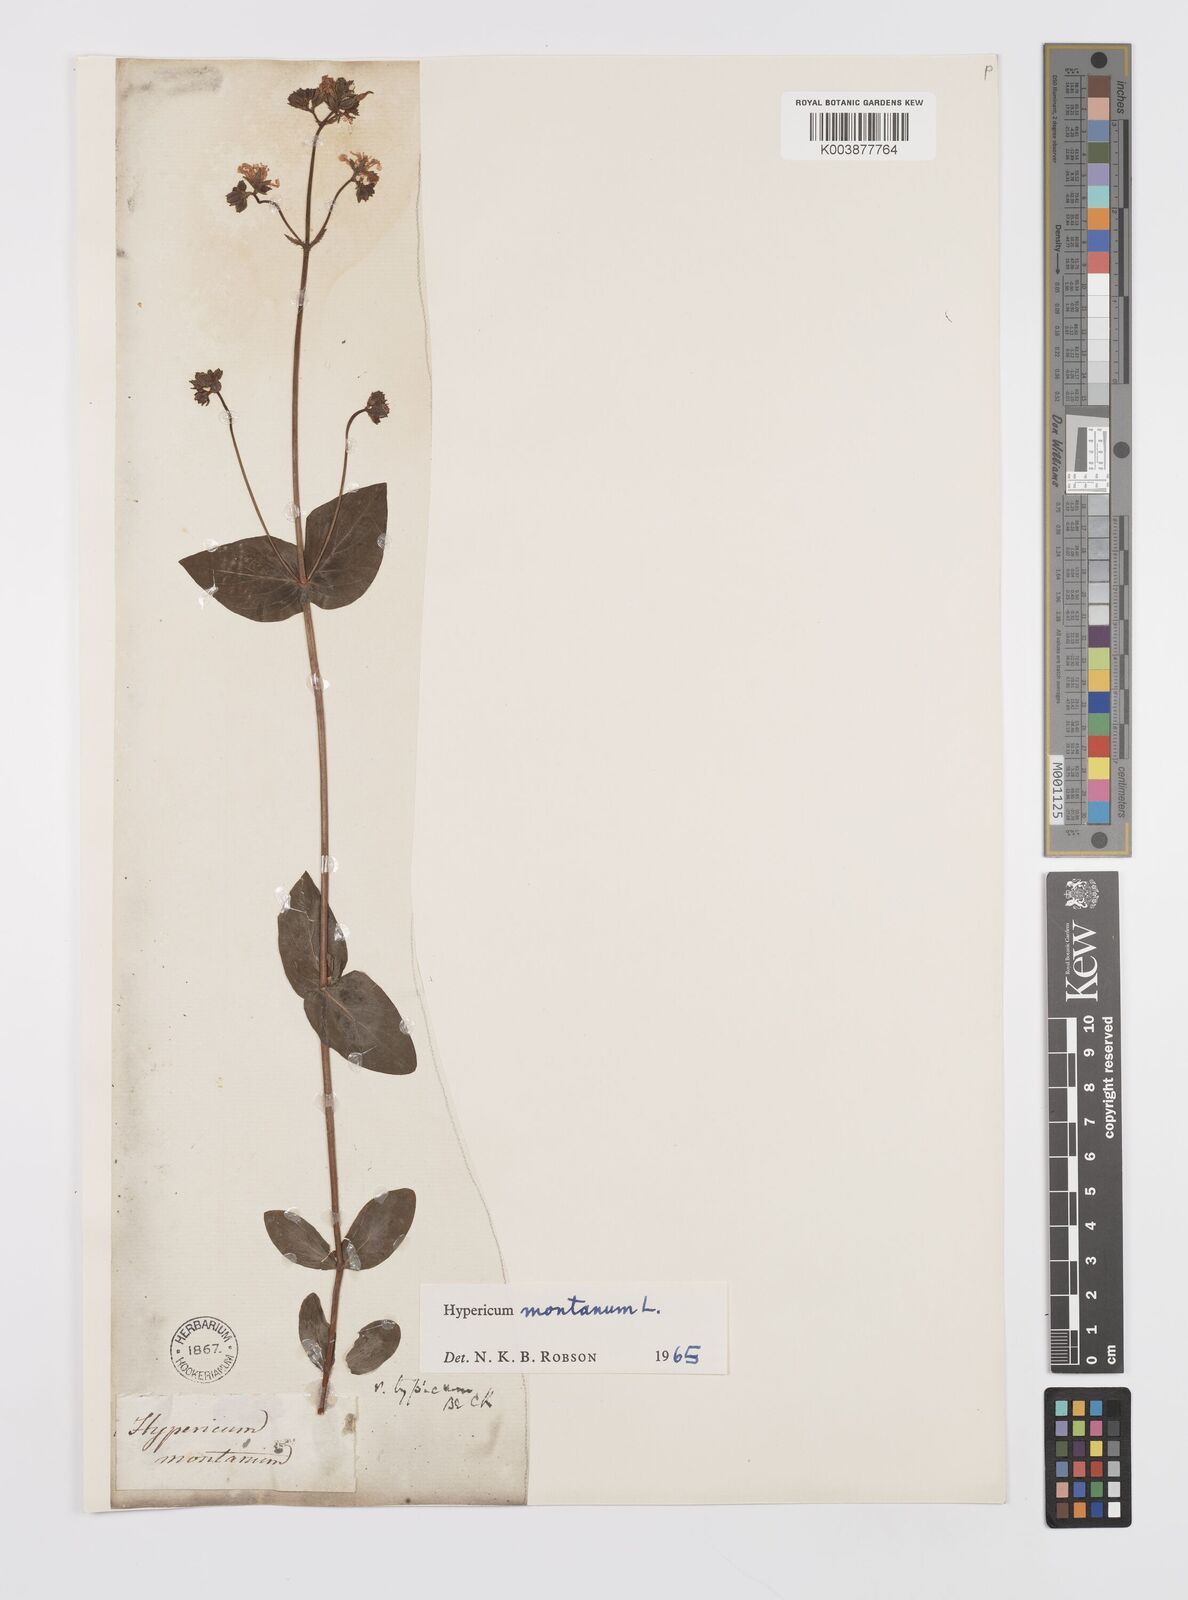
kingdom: Plantae
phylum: Tracheophyta
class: Magnoliopsida
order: Malpighiales
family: Hypericaceae
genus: Hypericum
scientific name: Hypericum montanum
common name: Pale st. john's-wort
